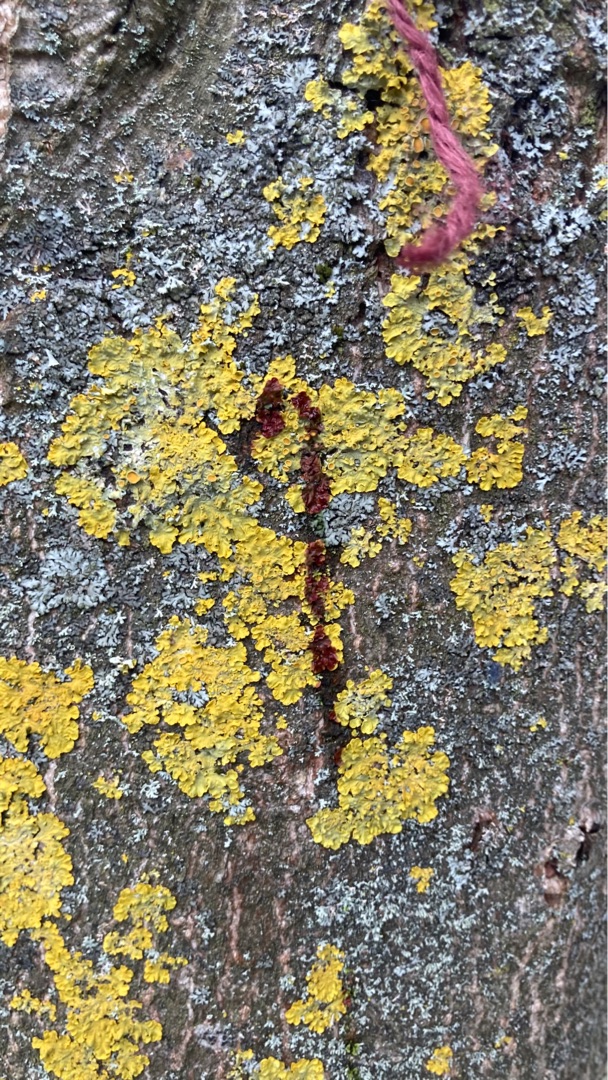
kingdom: Fungi
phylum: Ascomycota
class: Lecanoromycetes
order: Teloschistales
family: Teloschistaceae
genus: Xanthoria
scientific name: Xanthoria parietina
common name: Almindelig væggelav
